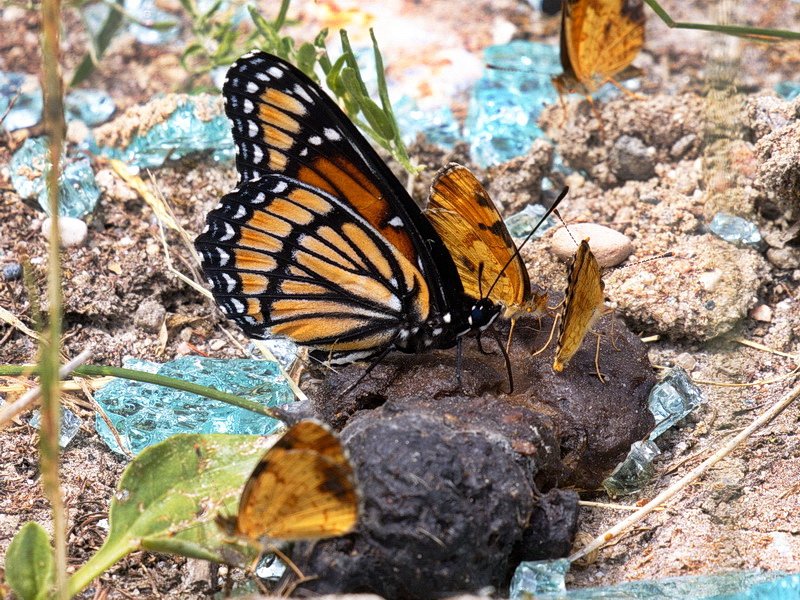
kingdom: Animalia
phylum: Arthropoda
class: Insecta
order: Lepidoptera
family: Nymphalidae
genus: Phyciodes
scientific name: Phyciodes tharos
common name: Northern Crescent
